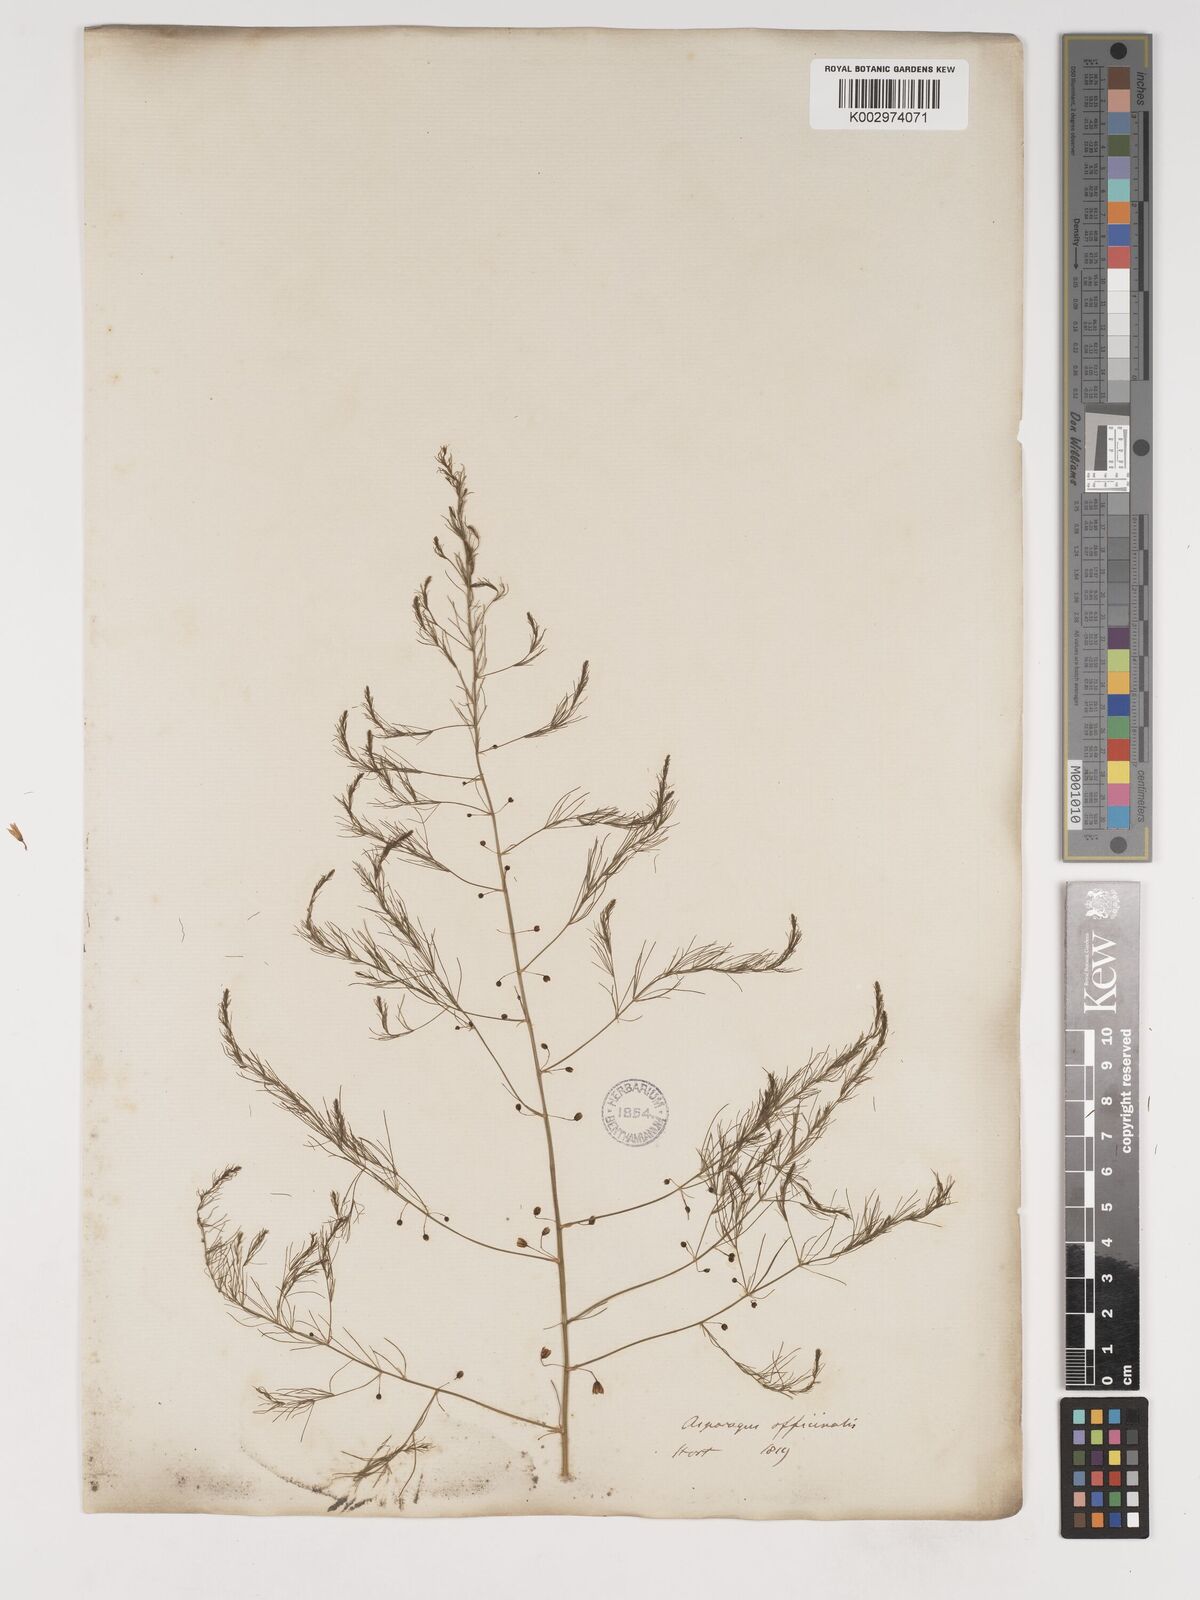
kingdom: Plantae
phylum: Tracheophyta
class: Liliopsida
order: Asparagales
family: Asparagaceae
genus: Asparagus
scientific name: Asparagus officinalis
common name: Garden asparagus
